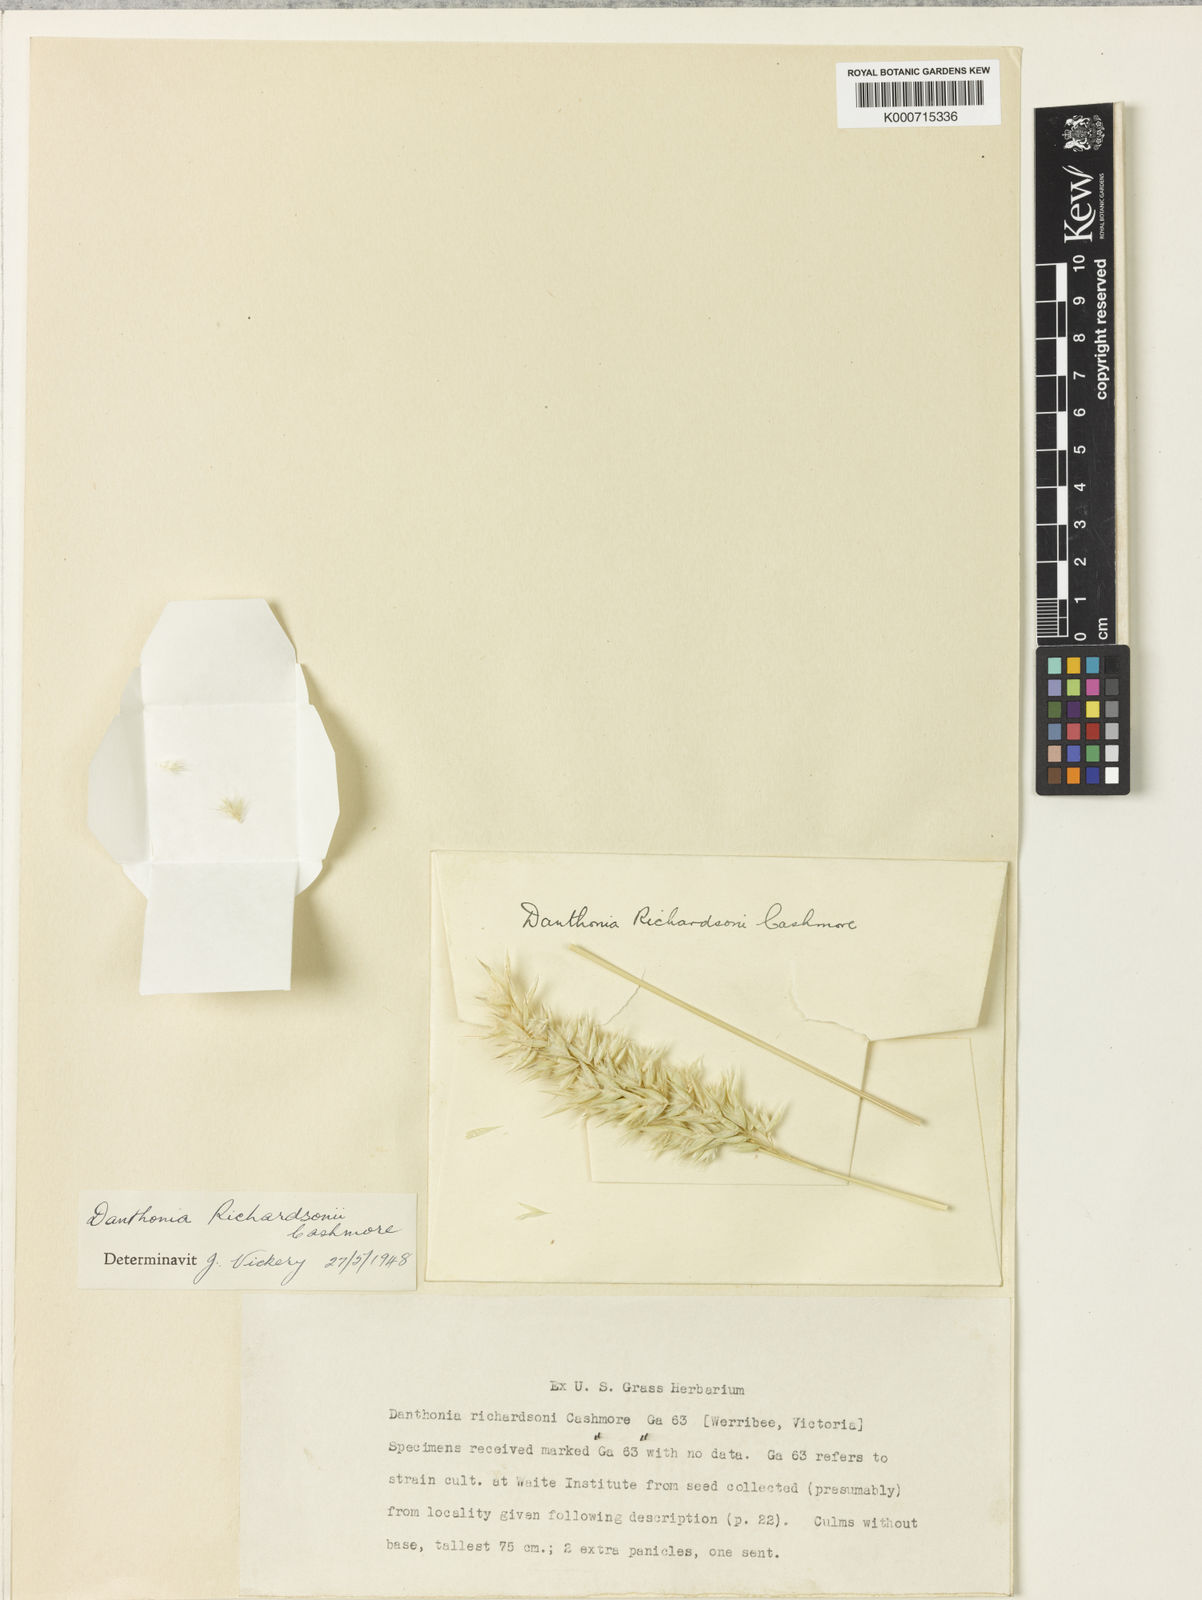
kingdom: Plantae
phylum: Tracheophyta
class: Liliopsida
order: Poales
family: Poaceae
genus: Rytidosperma
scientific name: Rytidosperma richardsonii
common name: Straw wallaby-grass
